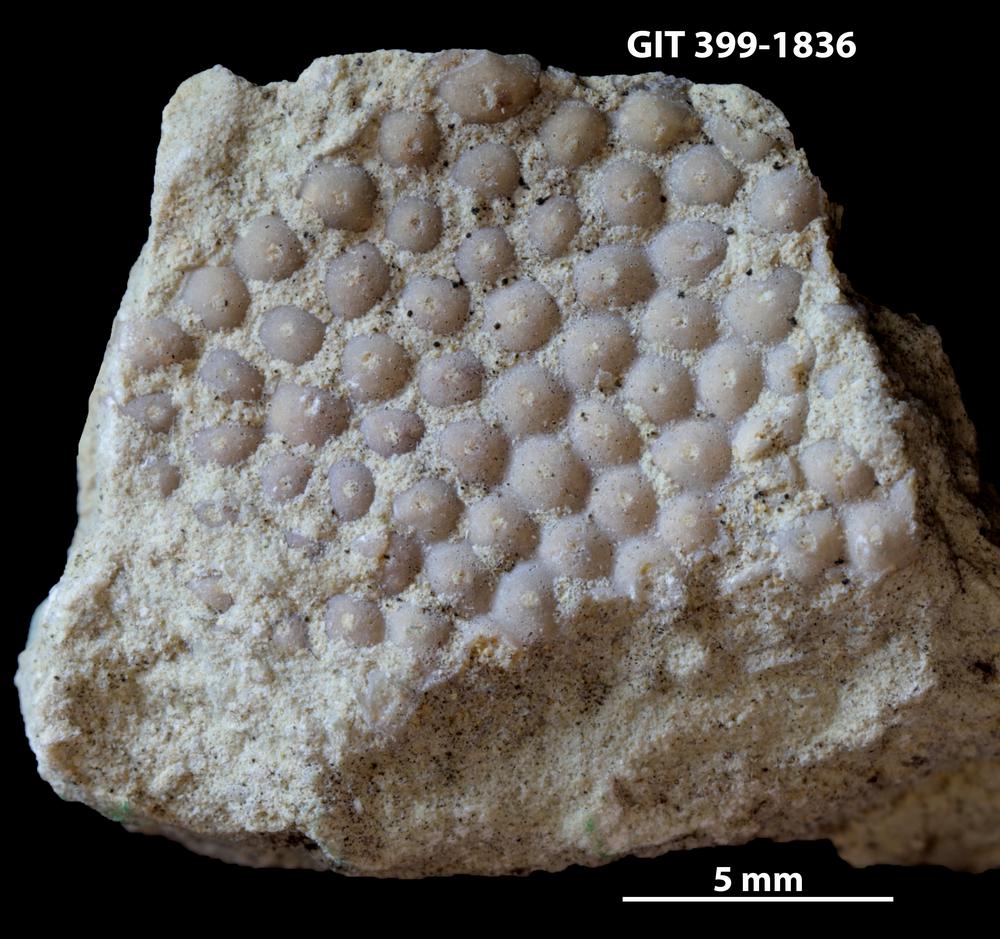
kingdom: Plantae
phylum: Chlorophyta
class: Ulvophyceae
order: Cyclocrinales
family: Cyclocrinaceae
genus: Mastopora
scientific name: Mastopora concava
